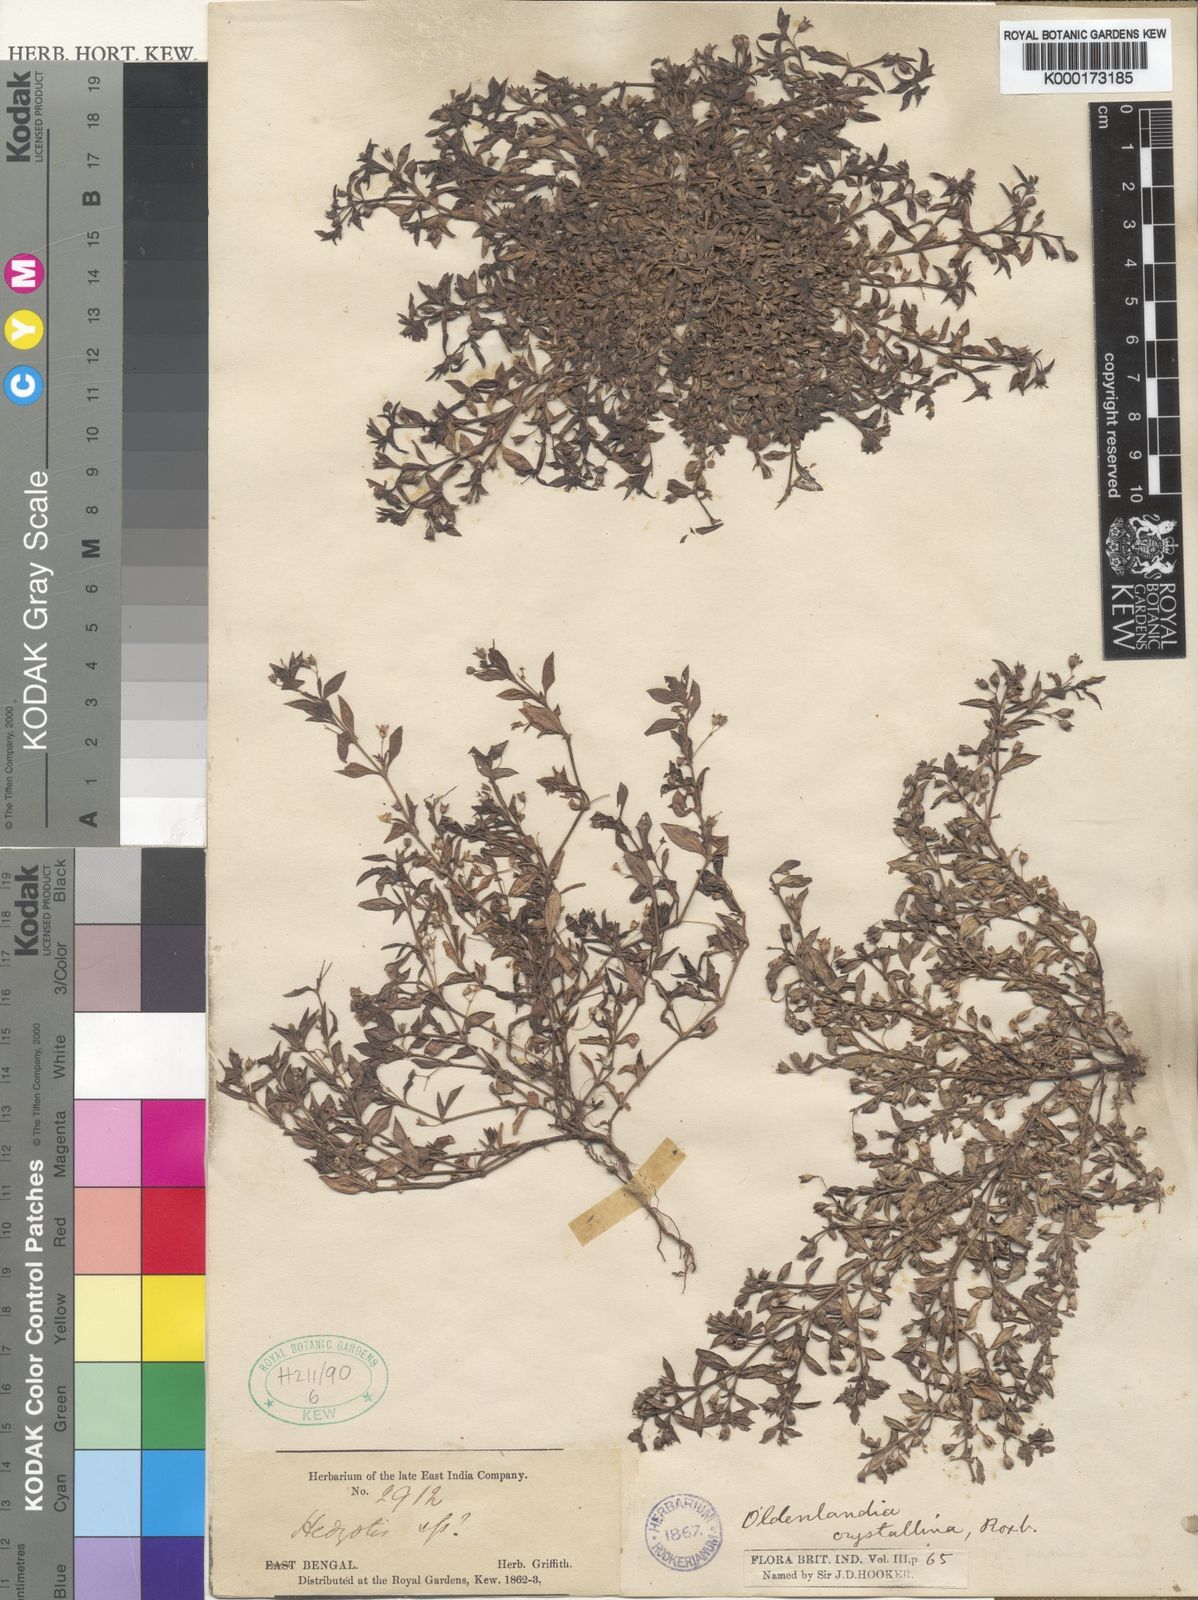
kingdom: Plantae
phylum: Tracheophyta
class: Magnoliopsida
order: Gentianales
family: Rubiaceae
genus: Oldenlandia
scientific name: Oldenlandia pumila
